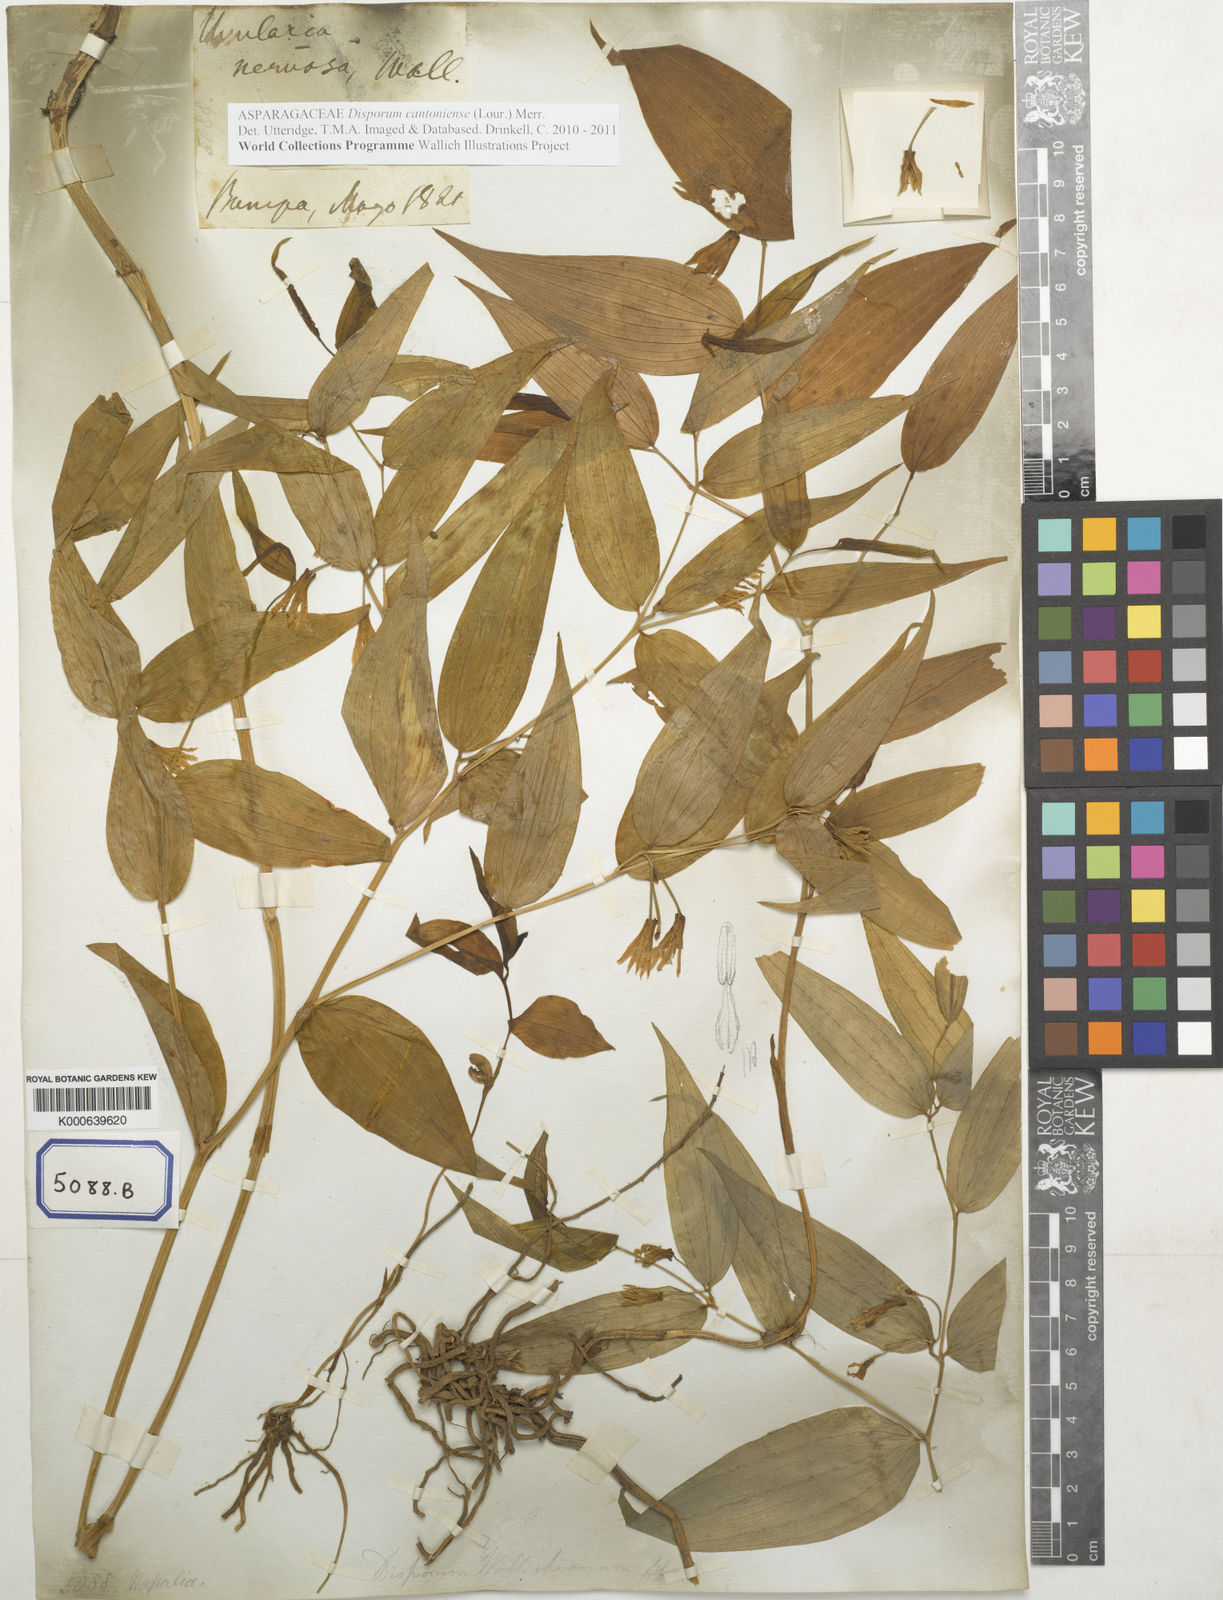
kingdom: Plantae
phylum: Tracheophyta
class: Liliopsida
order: Liliales
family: Colchicaceae
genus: Uvularia
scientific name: Uvularia
